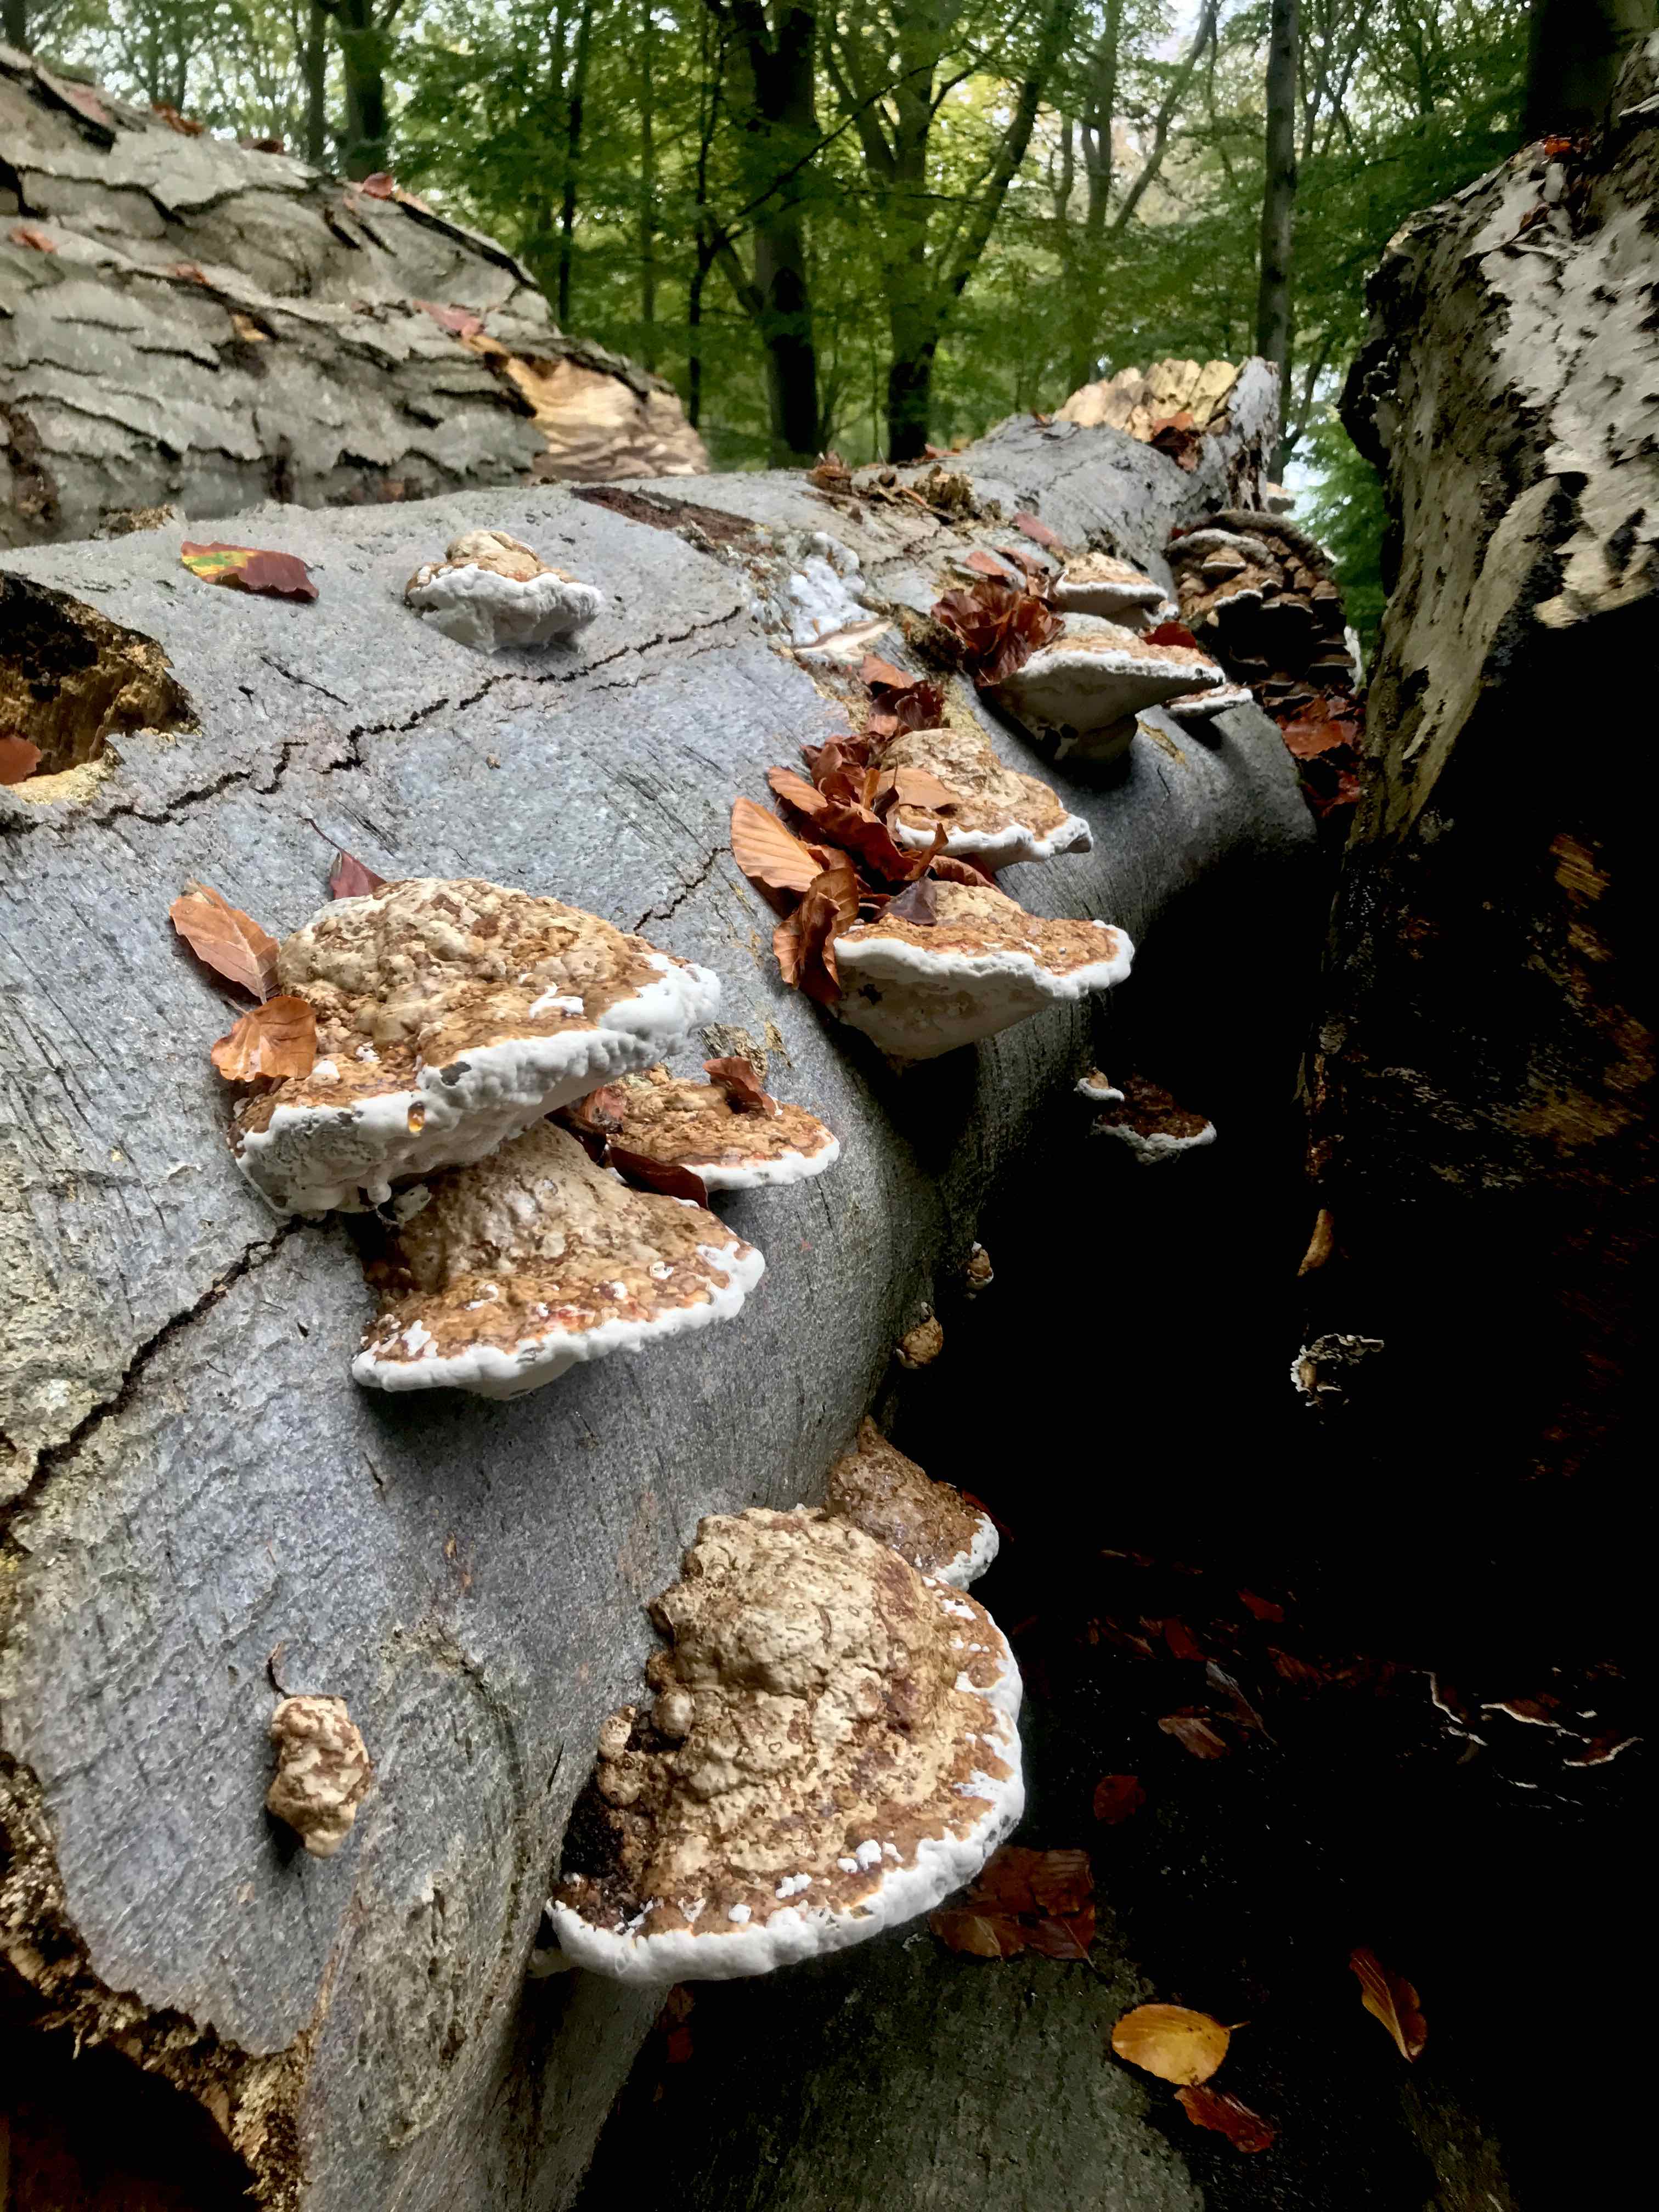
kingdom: Fungi
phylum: Basidiomycota
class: Agaricomycetes
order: Polyporales
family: Polyporaceae
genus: Ganoderma
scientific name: Ganoderma applanatum
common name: flad lakporesvamp
